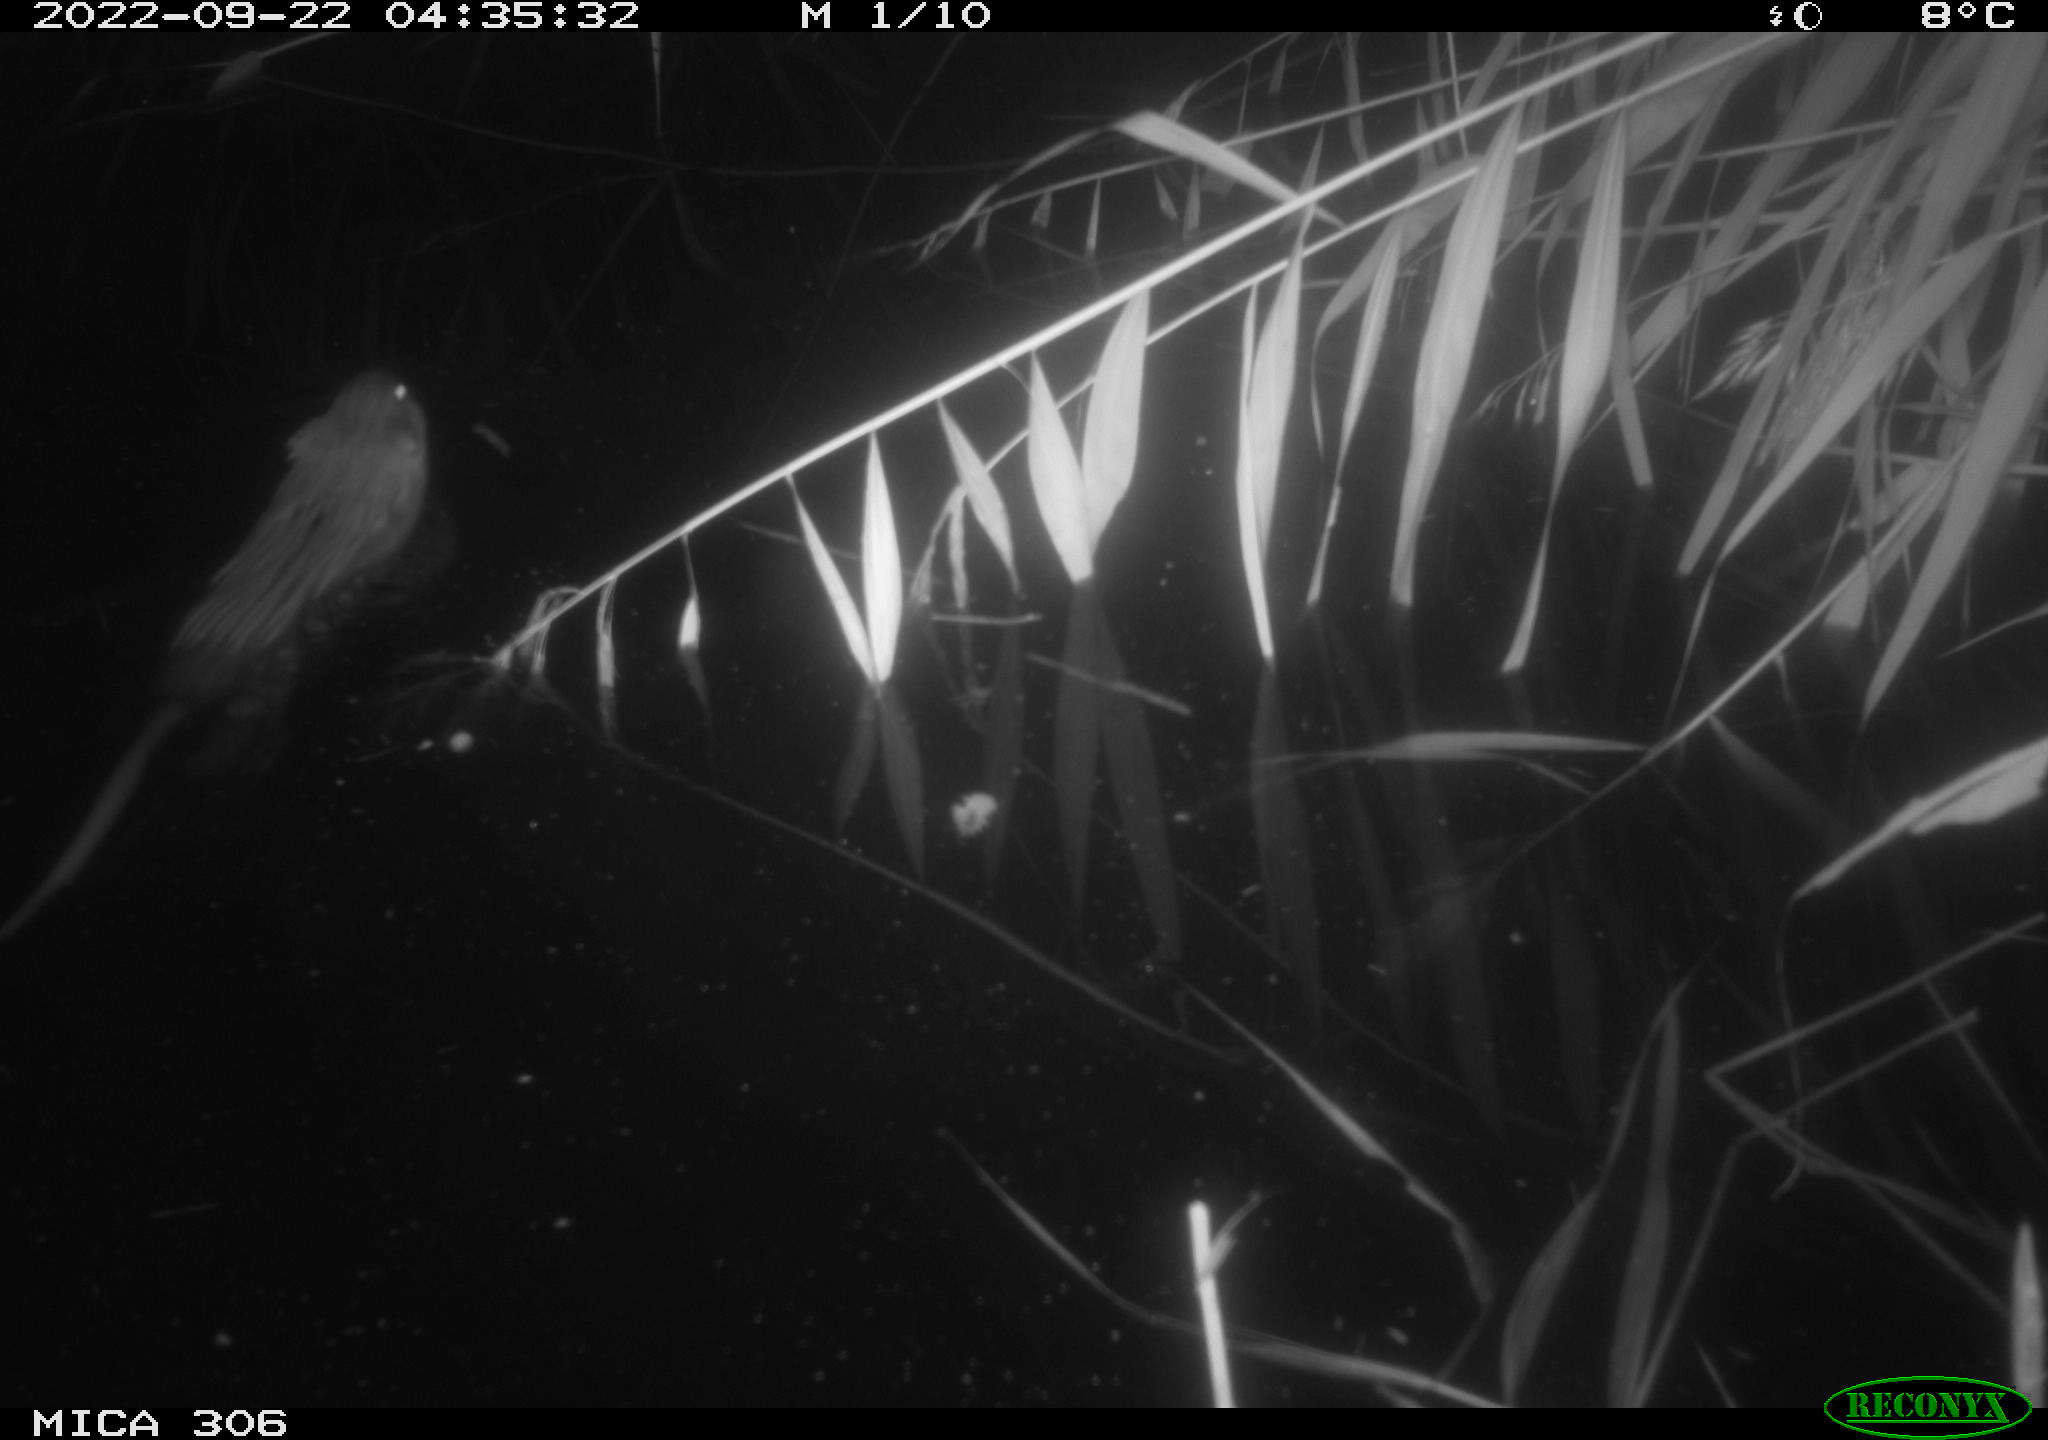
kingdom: Animalia
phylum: Chordata
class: Mammalia
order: Rodentia
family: Cricetidae
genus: Ondatra
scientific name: Ondatra zibethicus
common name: Muskrat
